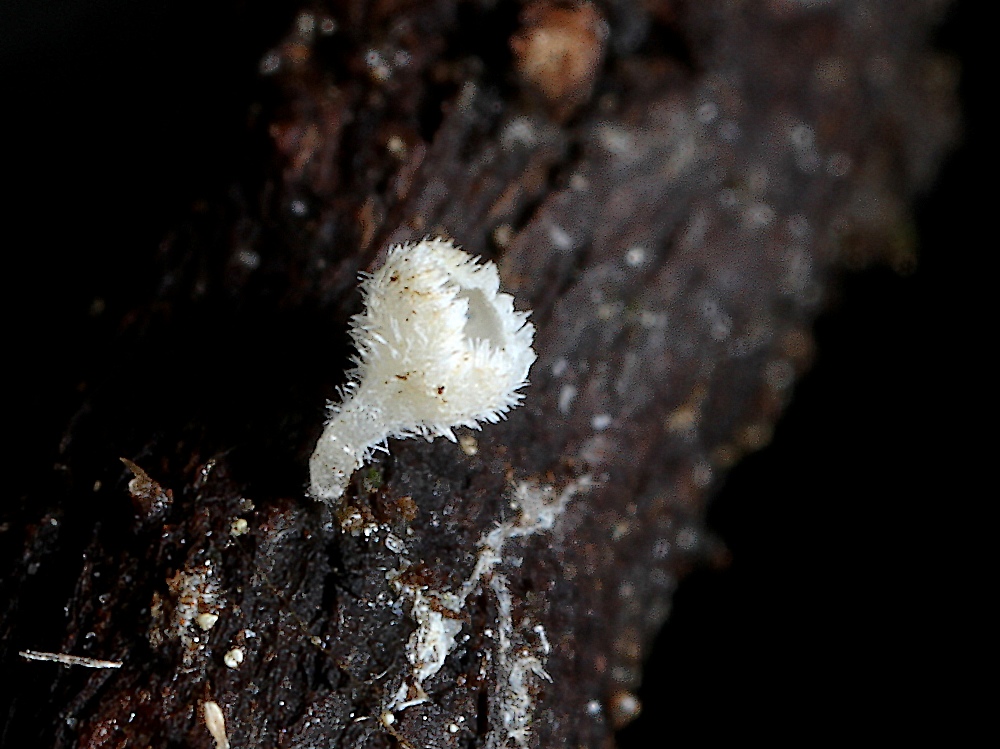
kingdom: Fungi
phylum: Ascomycota
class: Leotiomycetes
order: Helotiales
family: Lachnaceae
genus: Lachnum
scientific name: Lachnum
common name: frynseskive
